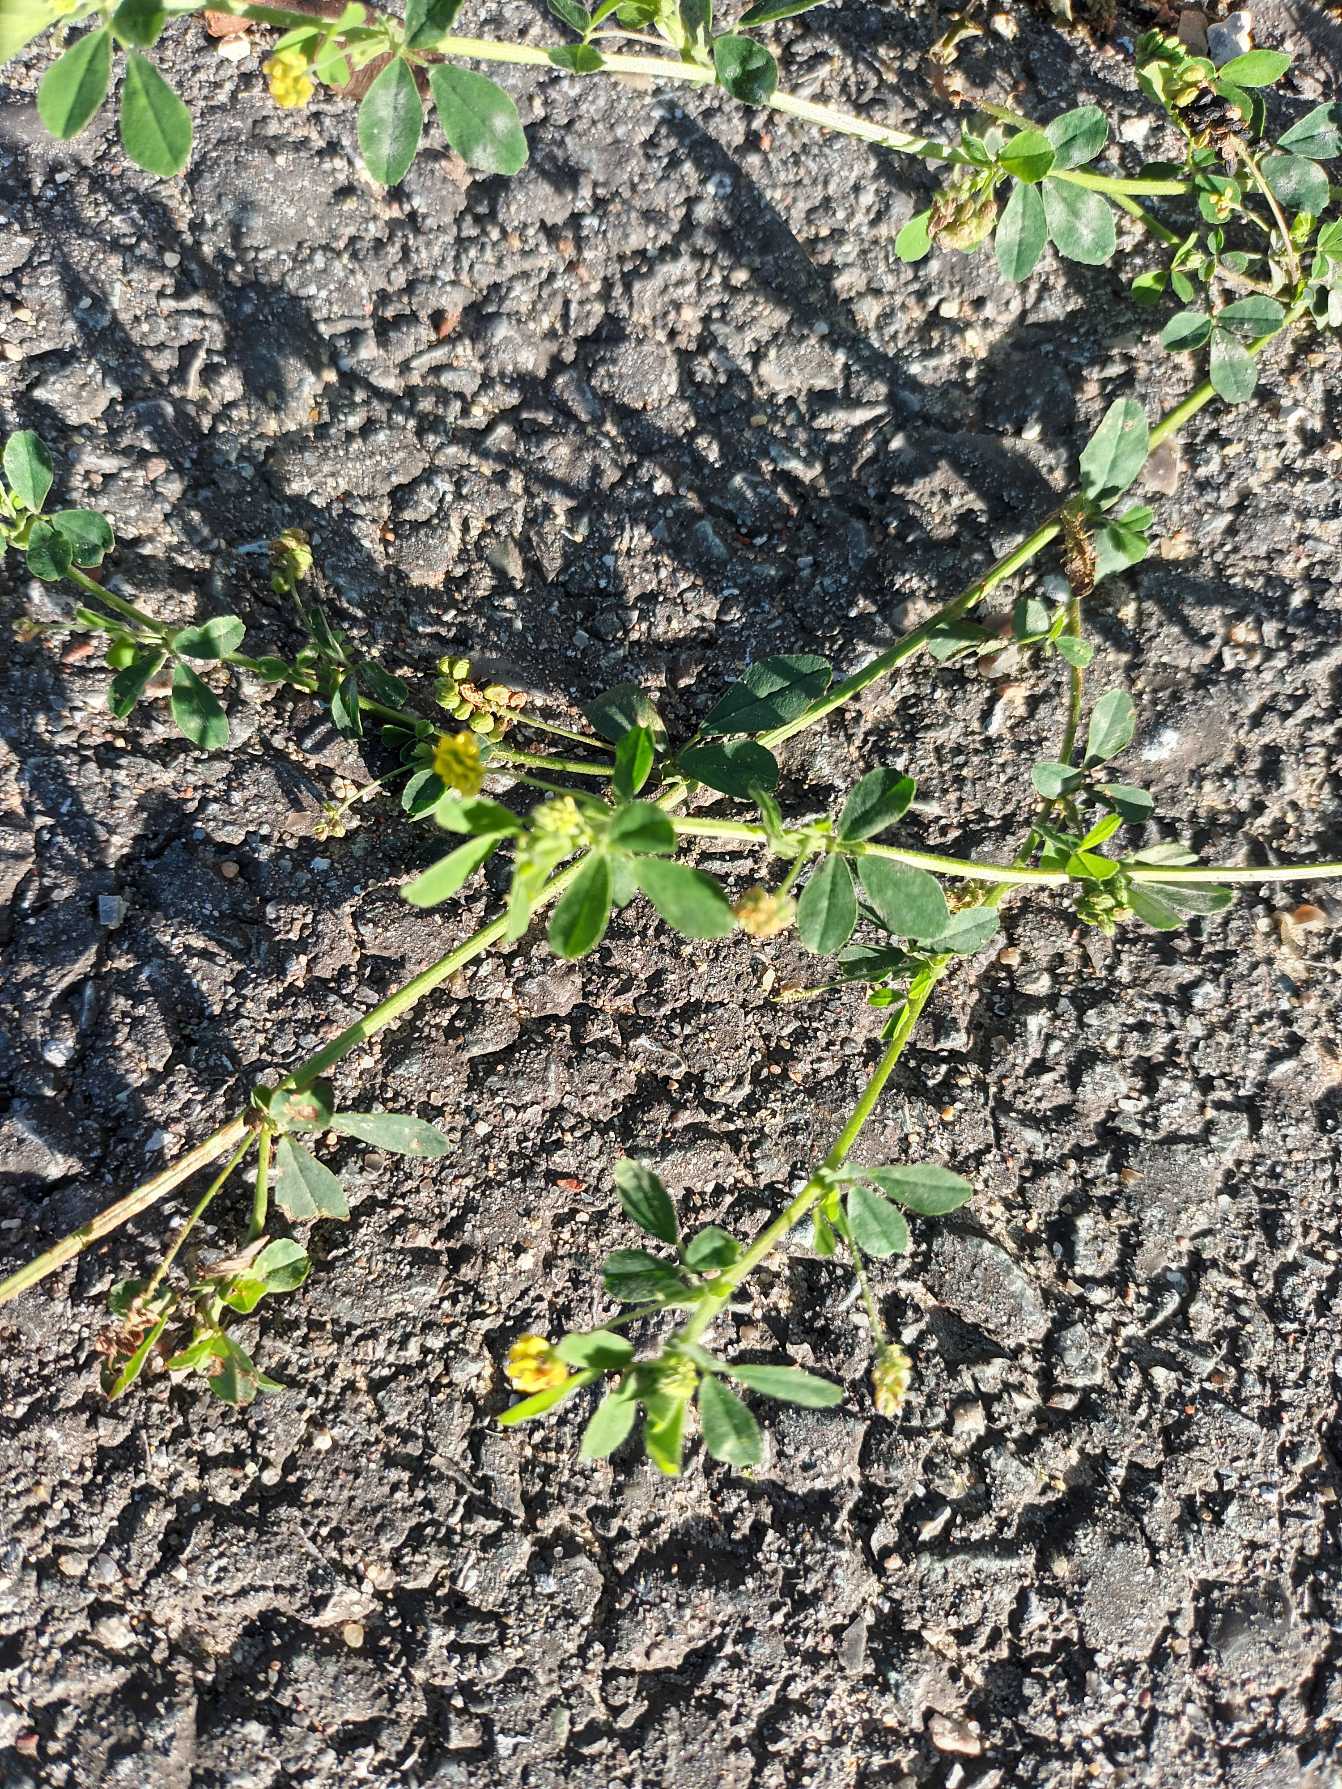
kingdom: Plantae
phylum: Tracheophyta
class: Magnoliopsida
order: Fabales
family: Fabaceae
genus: Medicago
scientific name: Medicago lupulina
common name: Humle-sneglebælg
